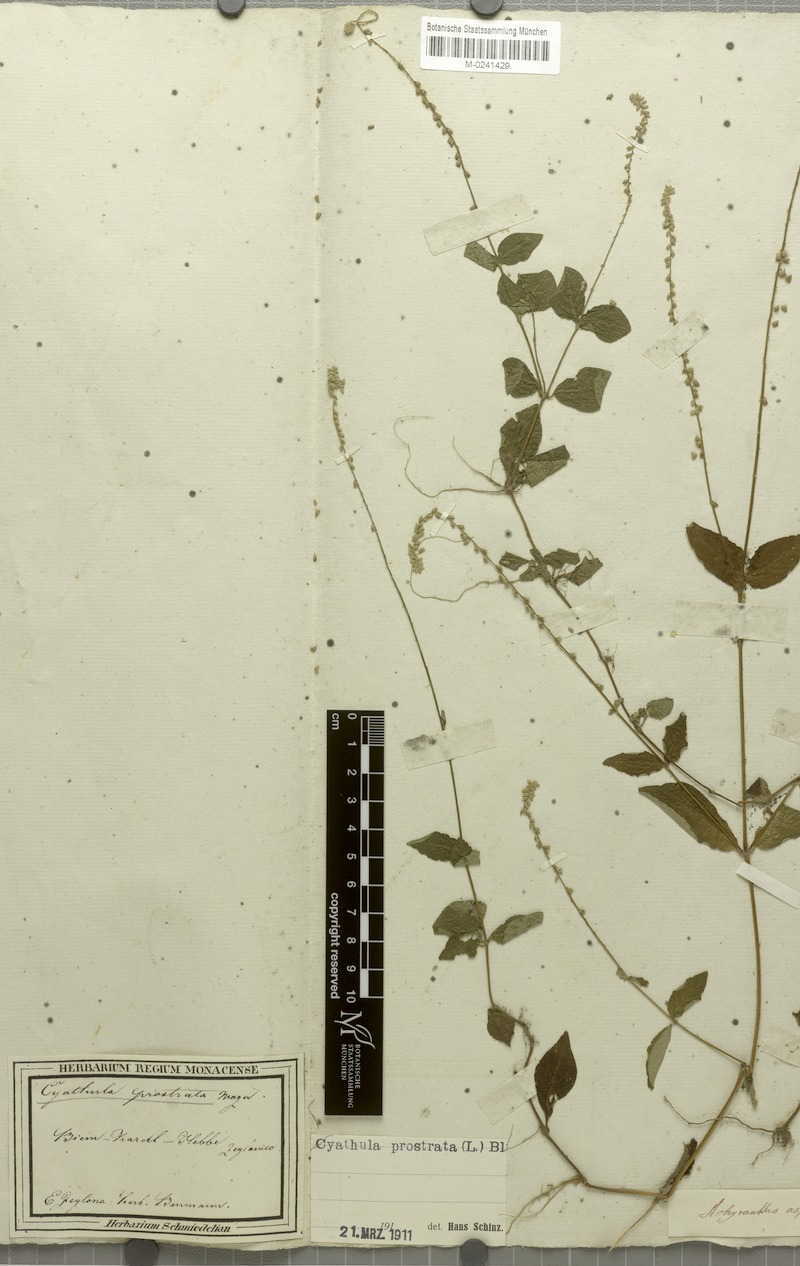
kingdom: Plantae
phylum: Tracheophyta
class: Magnoliopsida
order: Caryophyllales
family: Amaranthaceae
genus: Cyathula
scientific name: Cyathula prostrata
